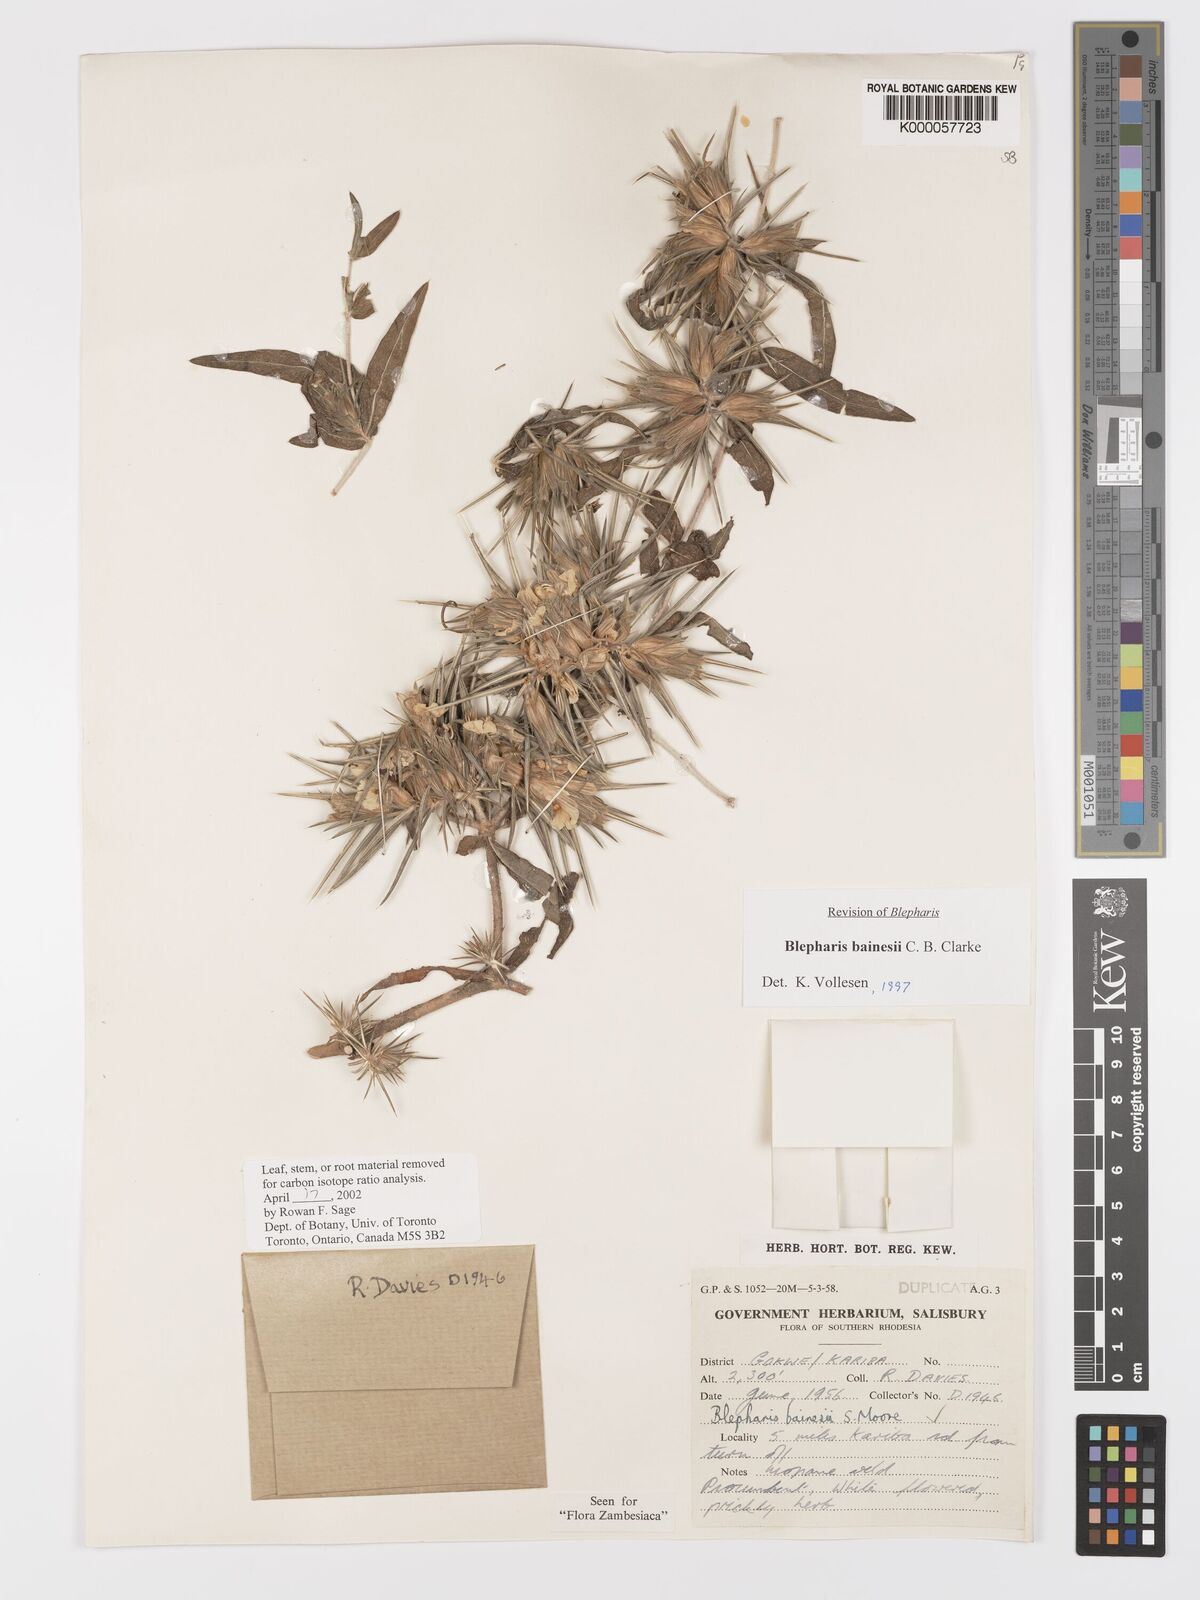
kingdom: Plantae
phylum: Tracheophyta
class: Magnoliopsida
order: Lamiales
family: Acanthaceae
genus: Blepharis
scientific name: Blepharis bainesii
